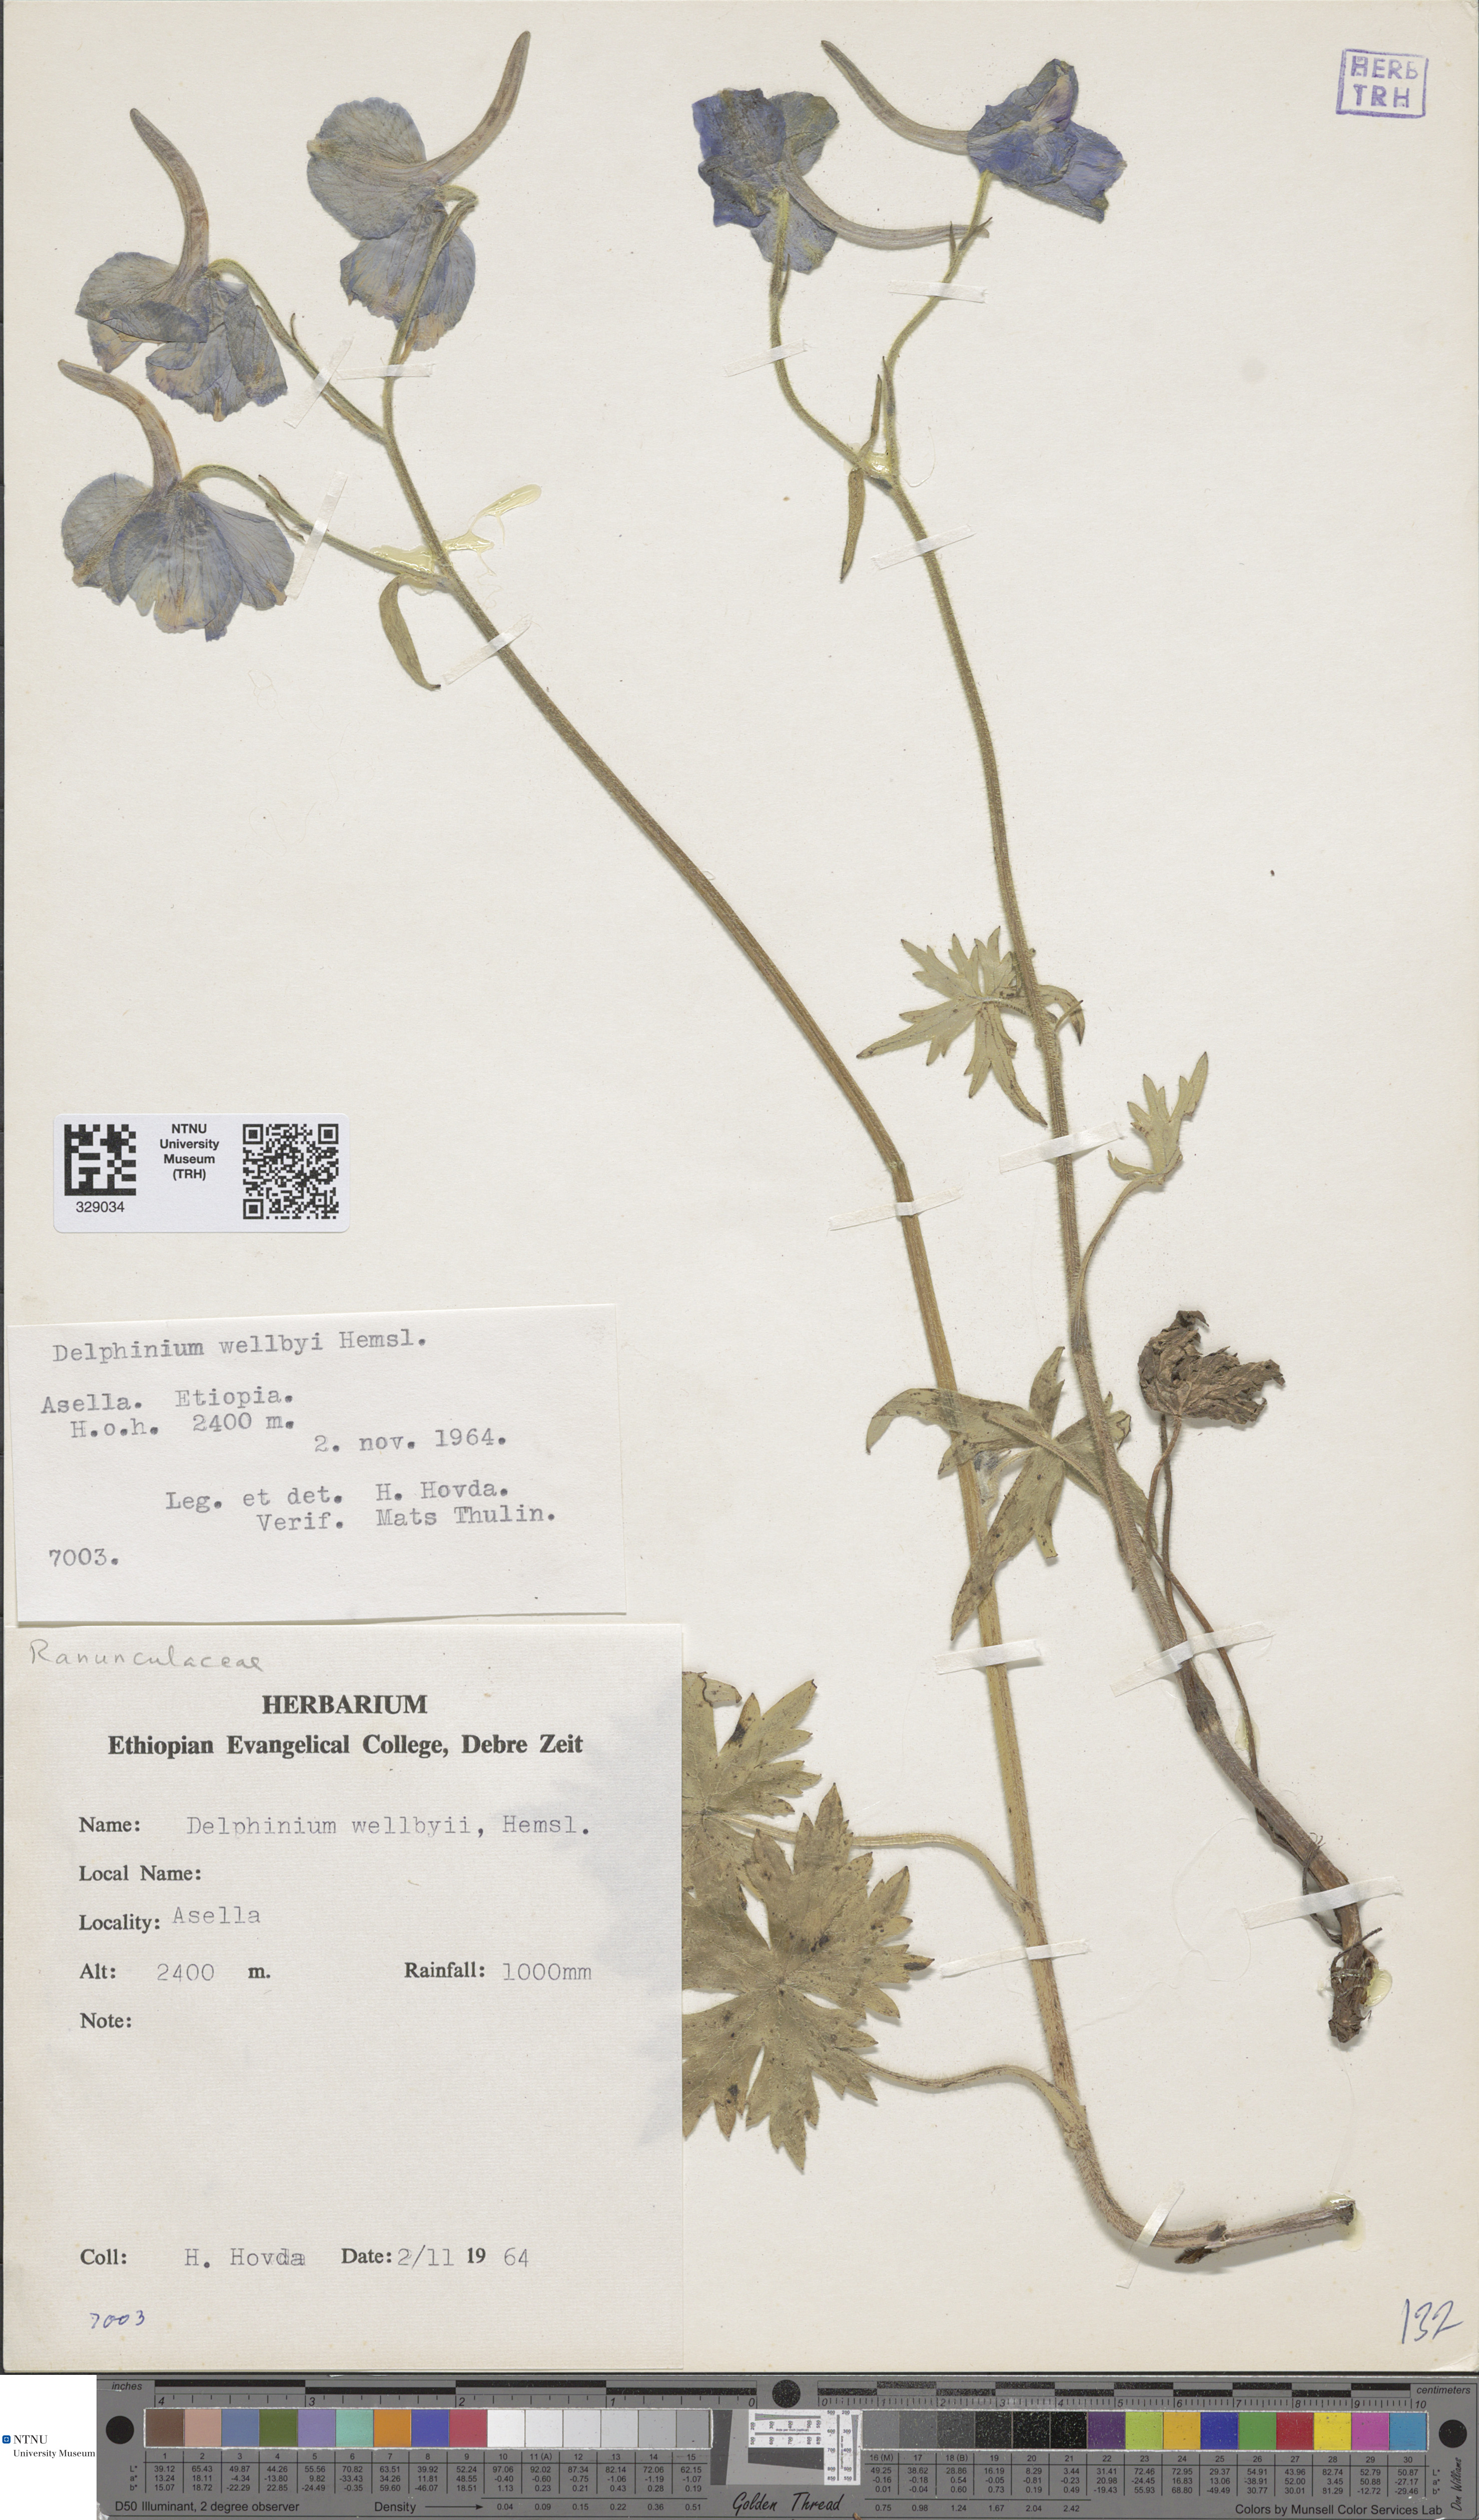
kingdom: Plantae
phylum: Tracheophyta
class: Magnoliopsida
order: Ranunculales
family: Ranunculaceae
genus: Delphinium
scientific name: Delphinium leroyi
